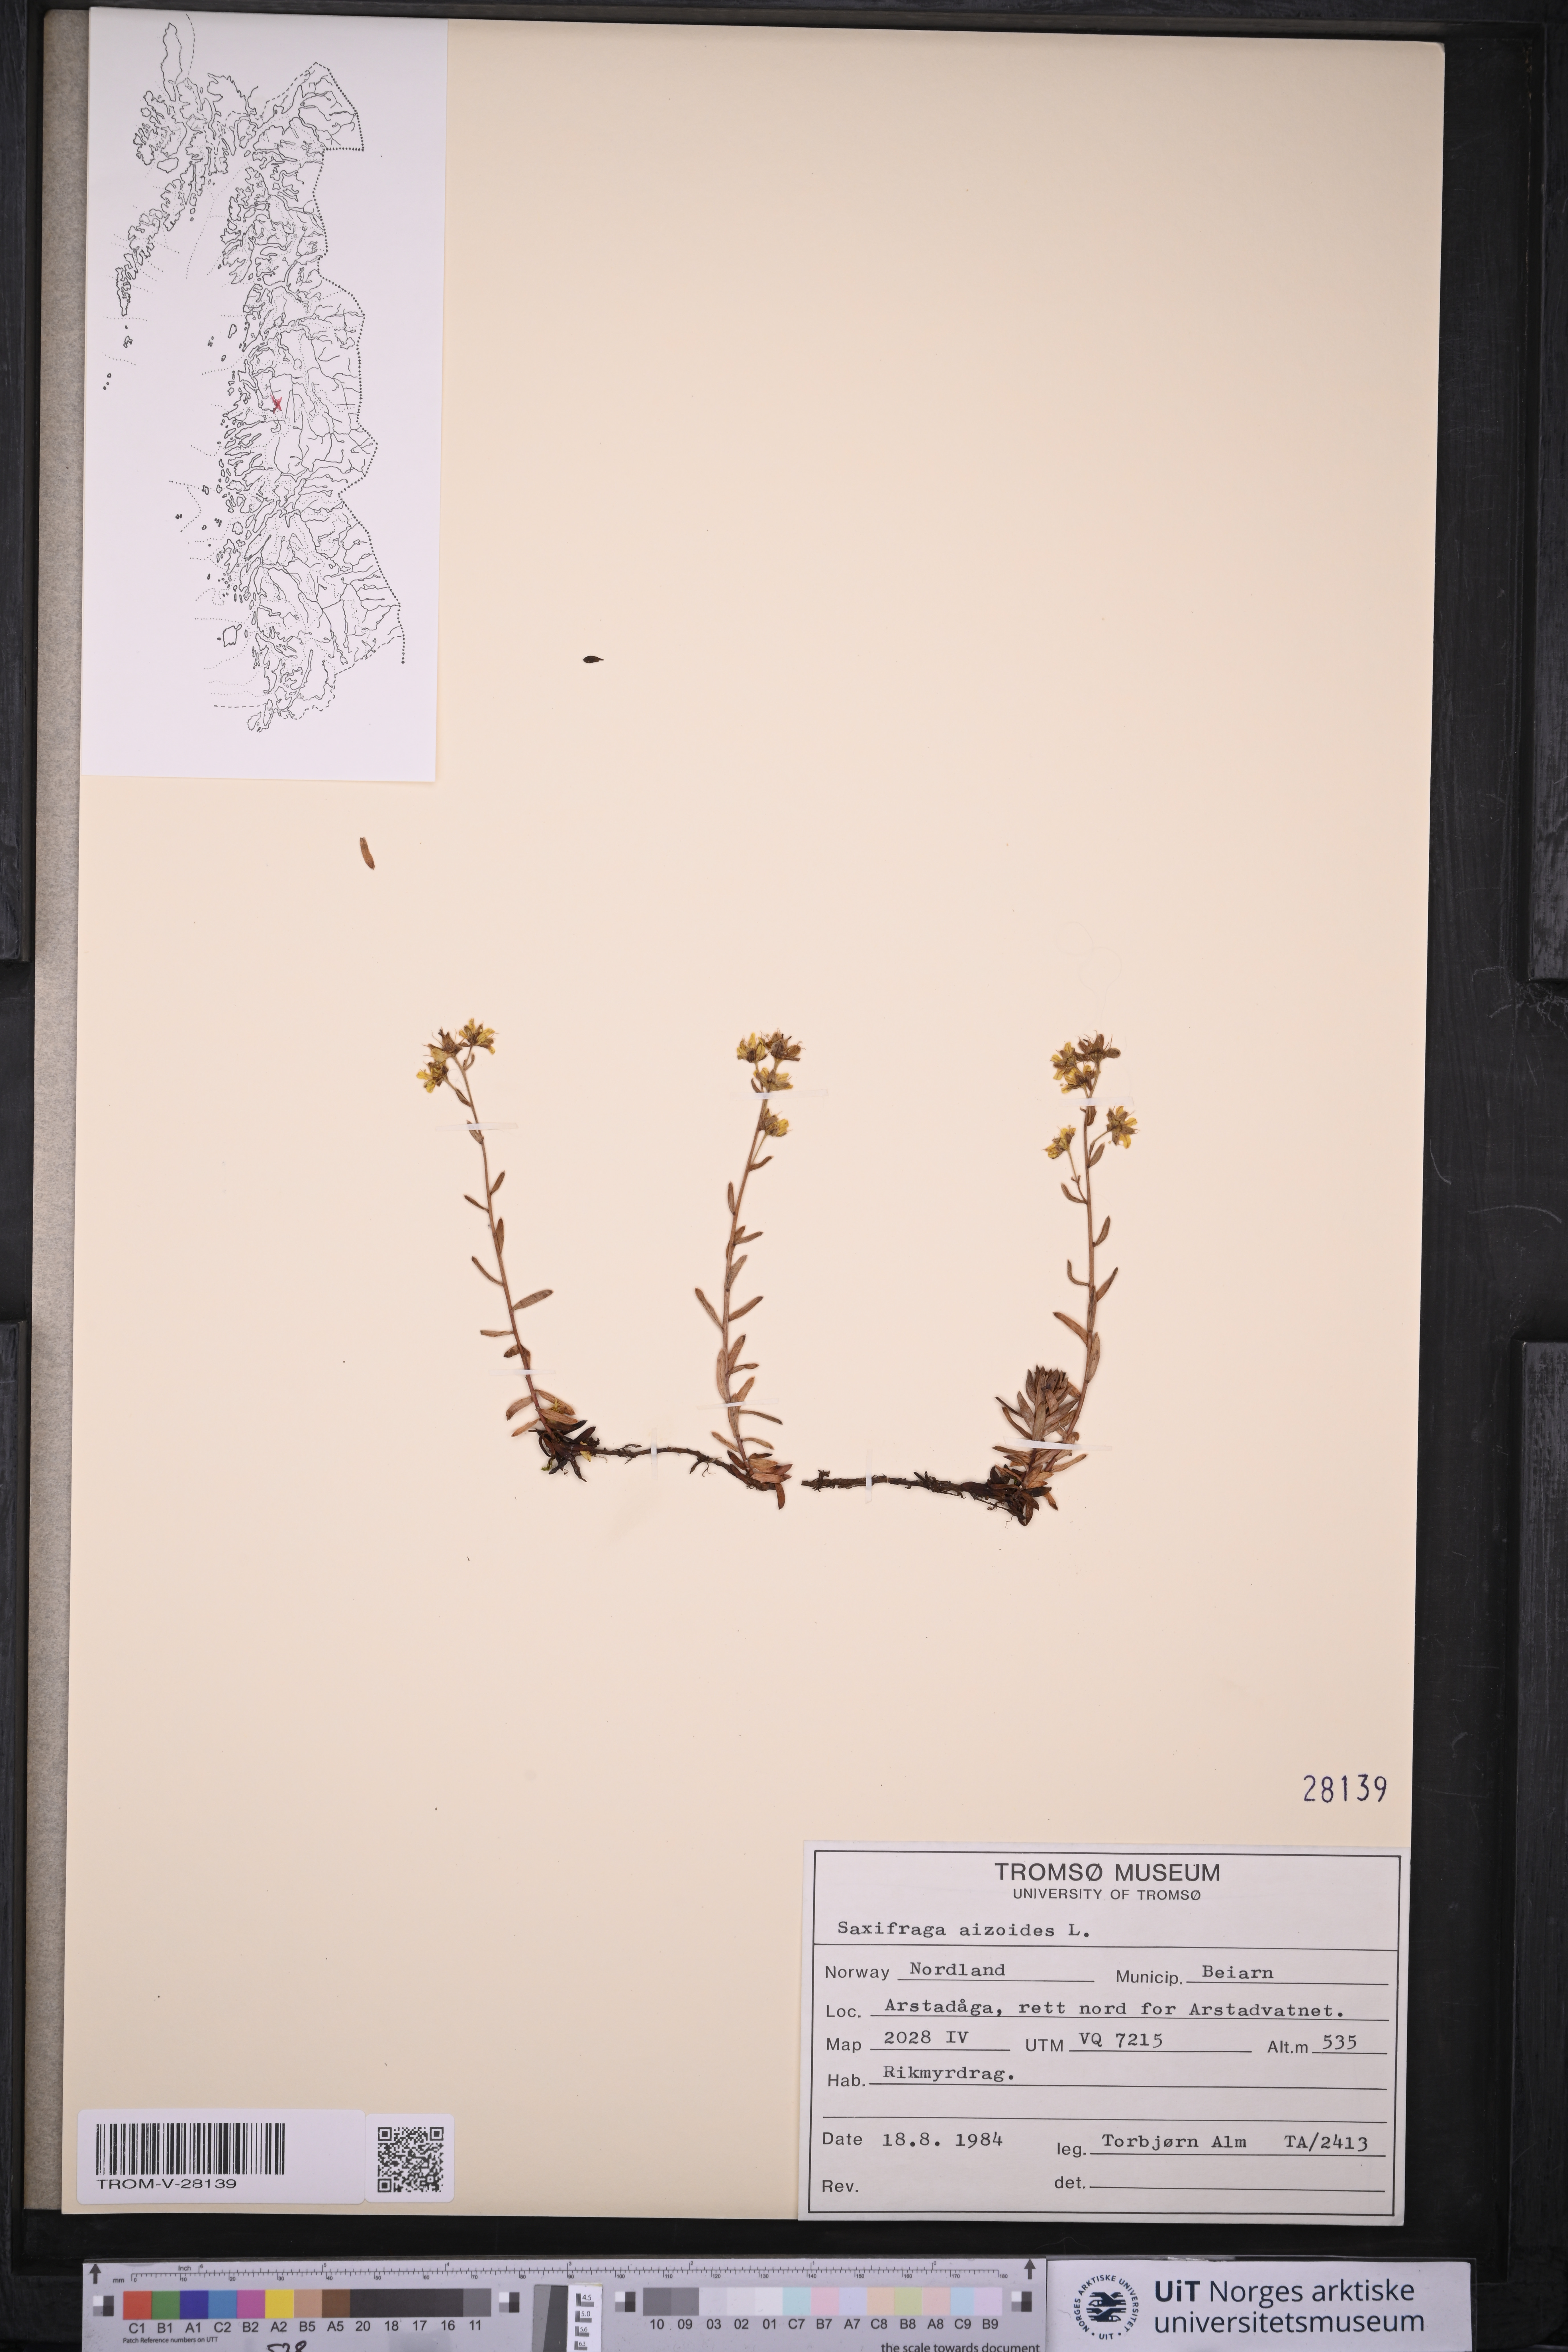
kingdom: Plantae
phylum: Tracheophyta
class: Magnoliopsida
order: Saxifragales
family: Saxifragaceae
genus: Saxifraga
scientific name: Saxifraga aizoides
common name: Yellow mountain saxifrage
